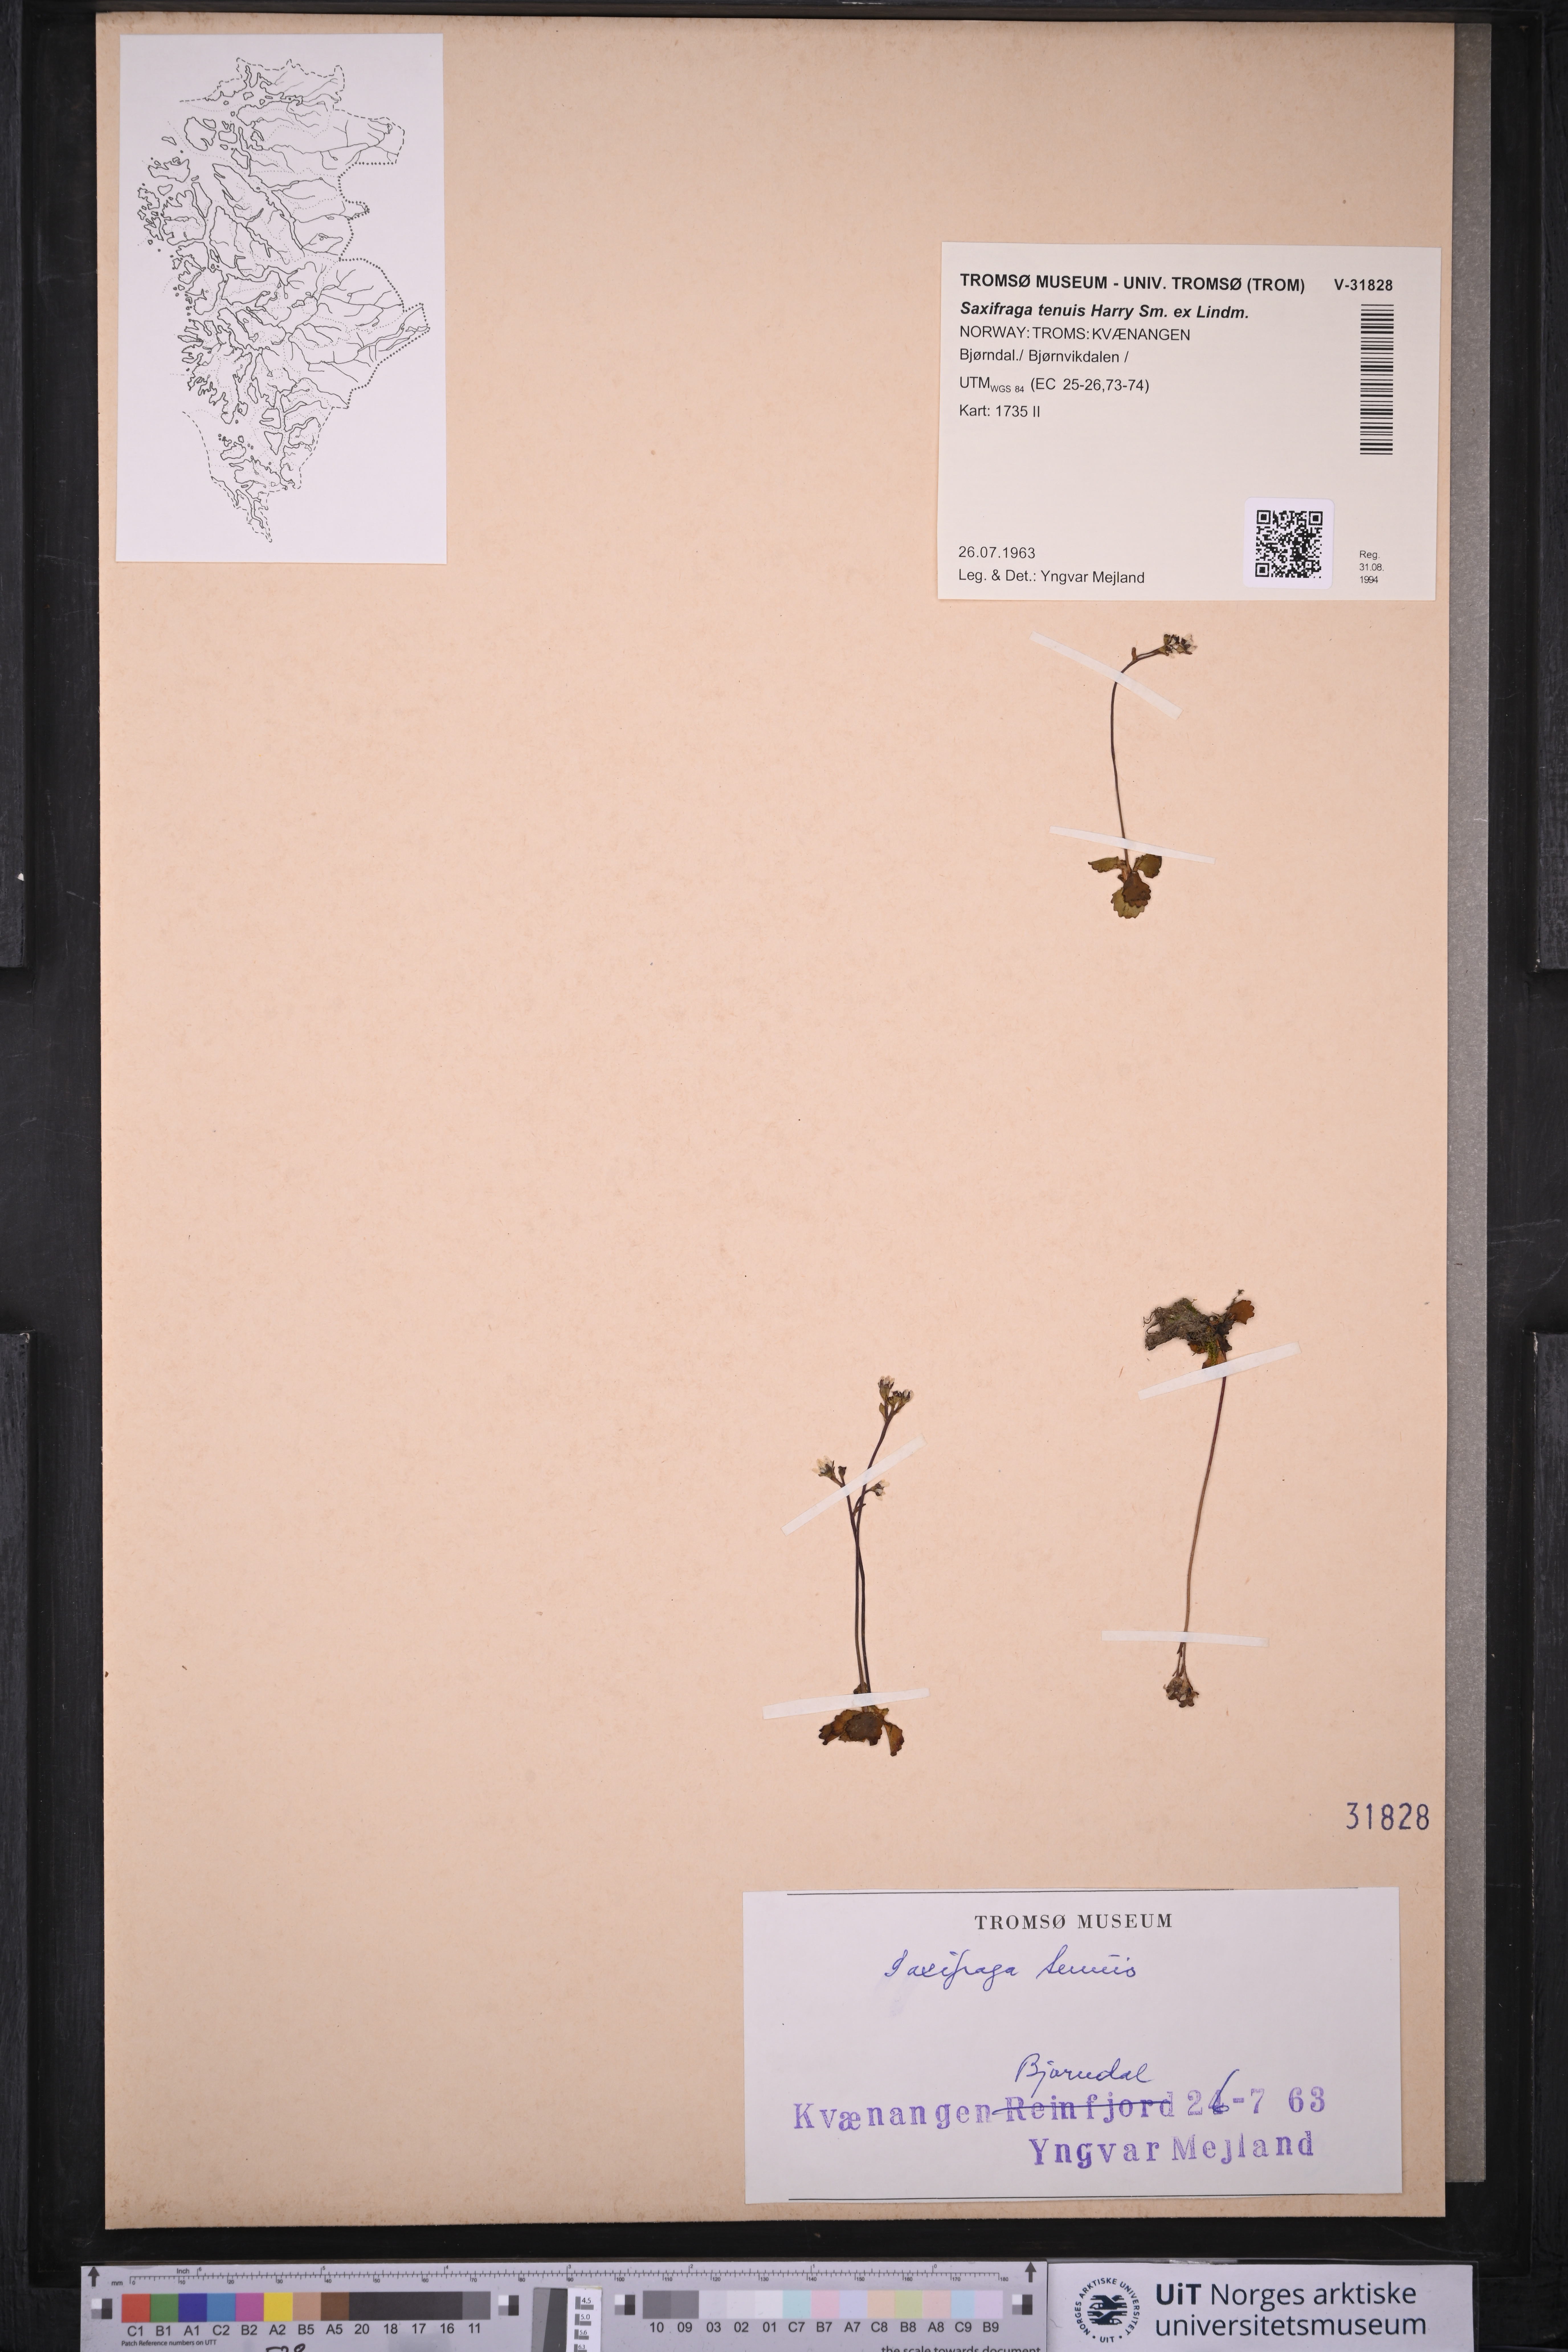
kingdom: Plantae
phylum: Tracheophyta
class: Magnoliopsida
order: Saxifragales
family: Saxifragaceae
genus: Micranthes
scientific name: Micranthes tenuis
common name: Ottertail pass saxifrage
